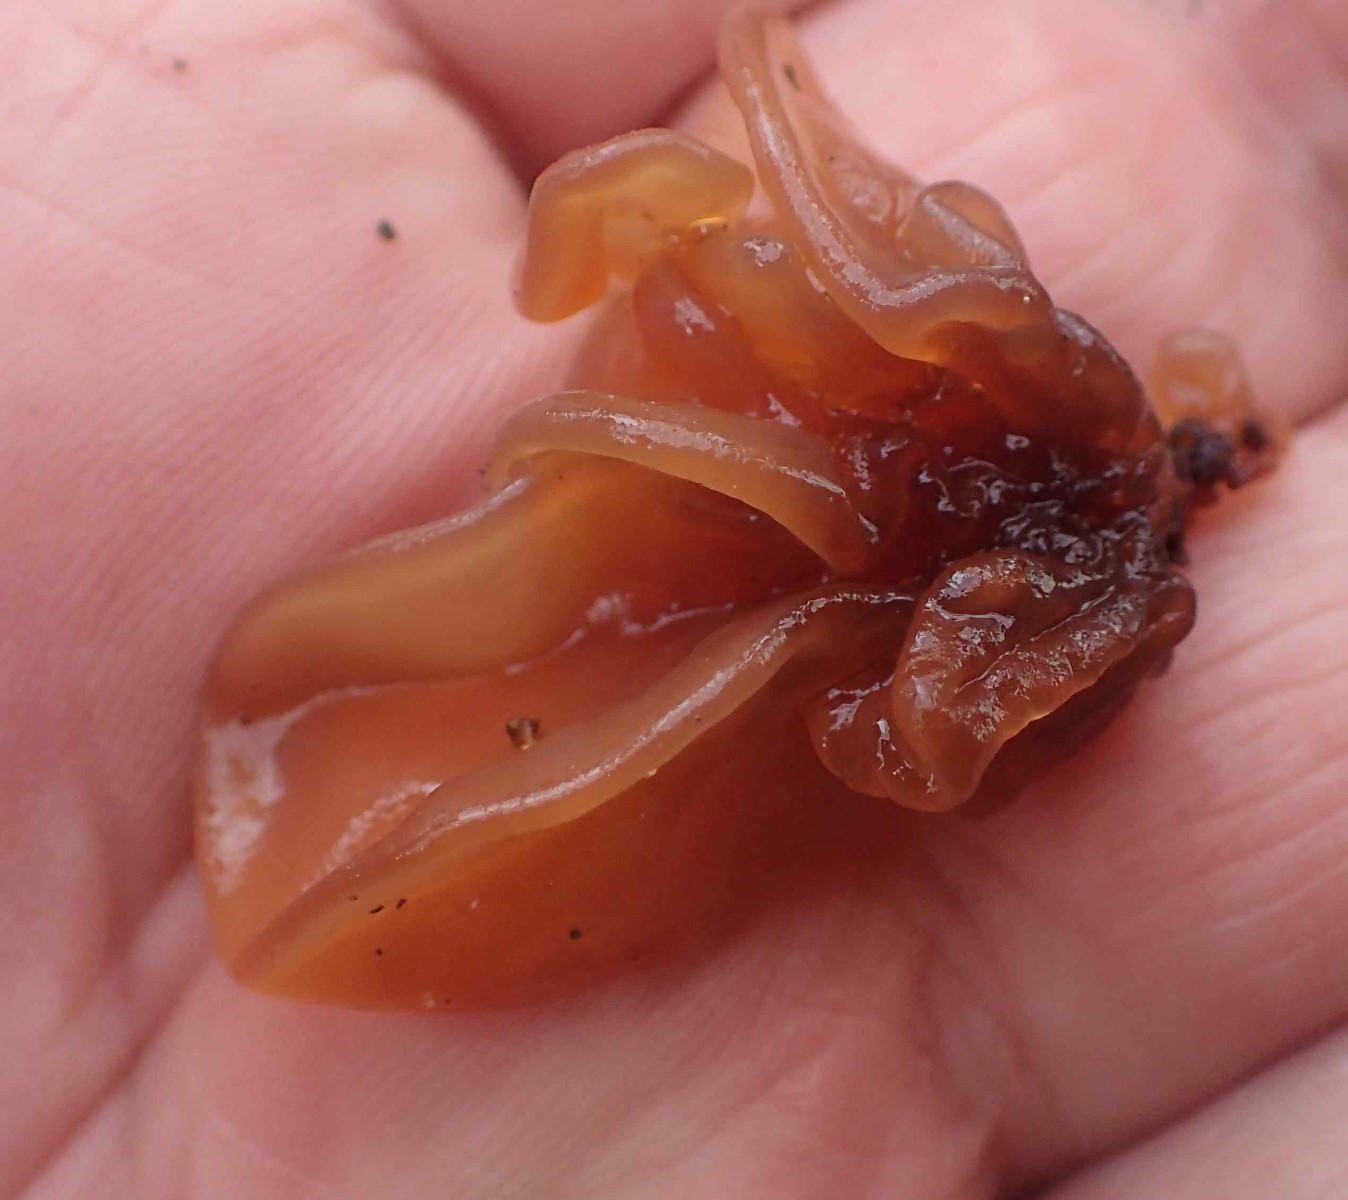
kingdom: Fungi
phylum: Basidiomycota
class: Tremellomycetes
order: Tremellales
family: Tremellaceae
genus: Phaeotremella
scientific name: Phaeotremella frondosa
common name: kæmpe-bævresvamp
